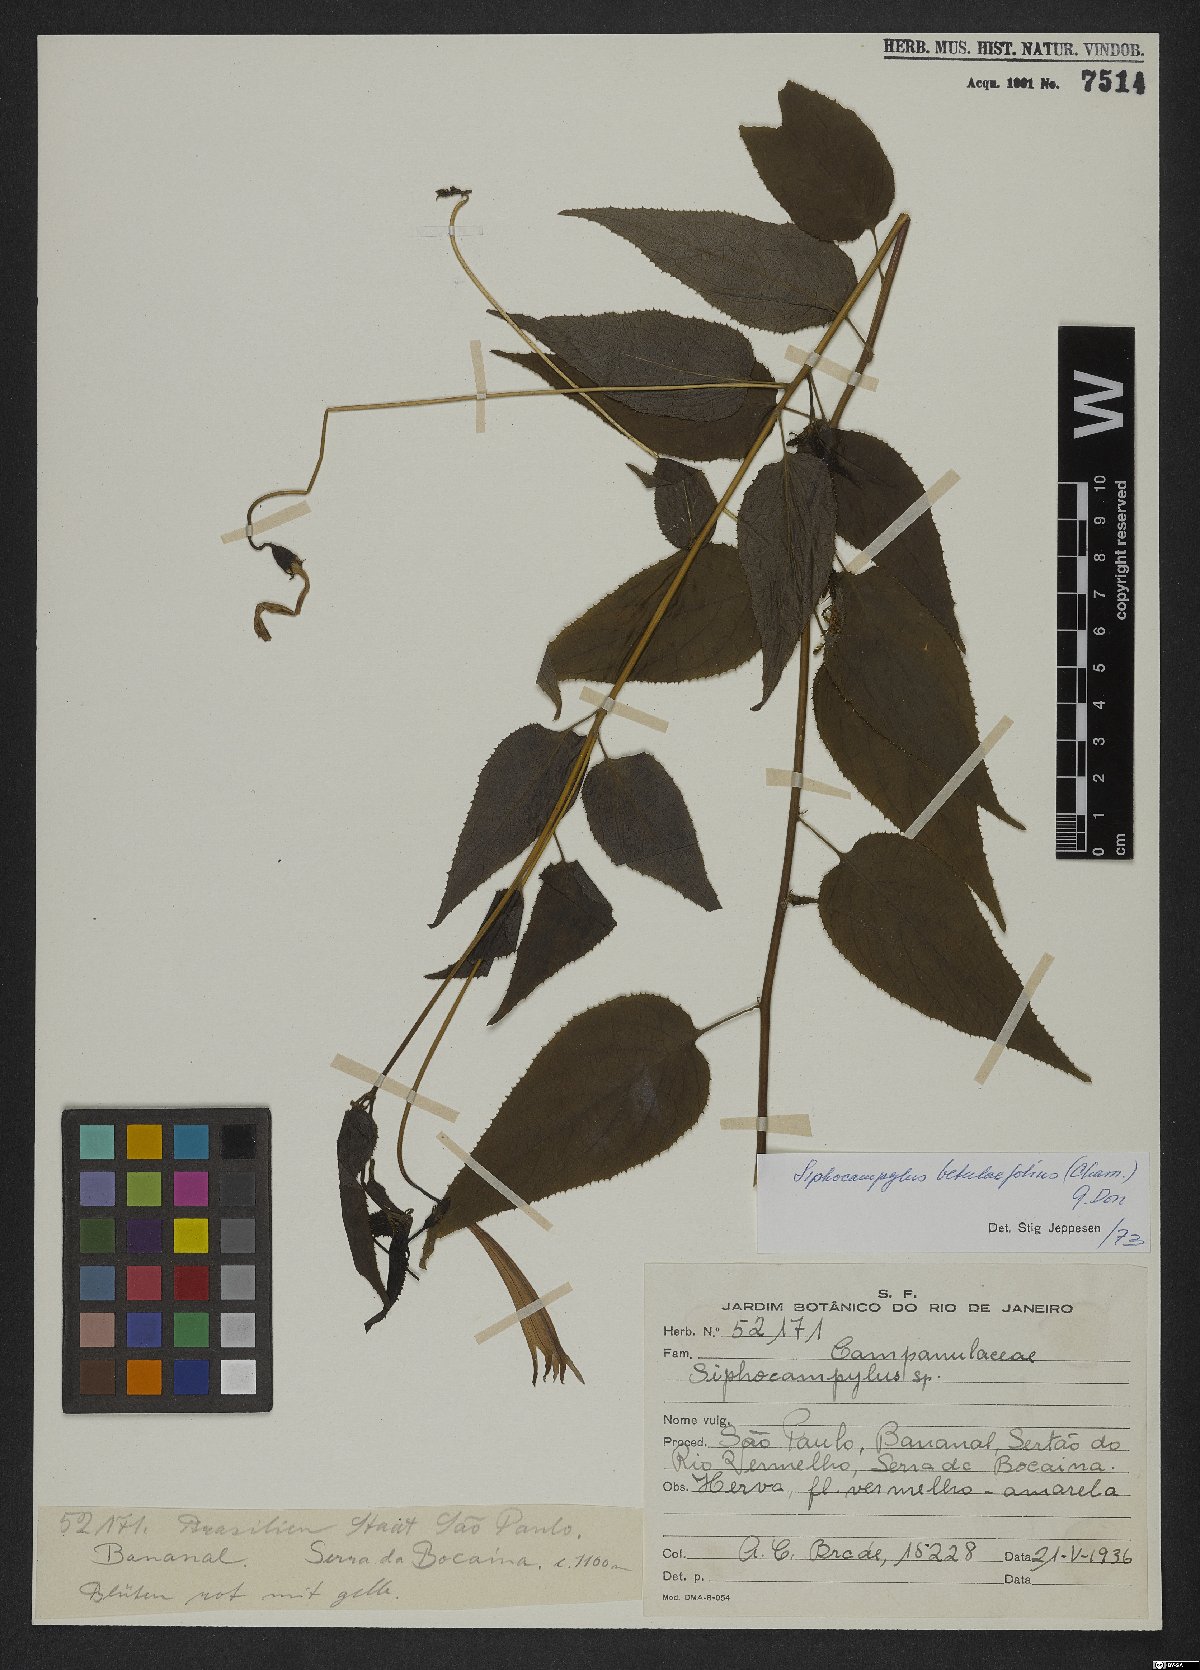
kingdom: Plantae
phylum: Tracheophyta
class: Magnoliopsida
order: Asterales
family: Campanulaceae
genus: Siphocampylus
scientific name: Siphocampylus betulifolius
